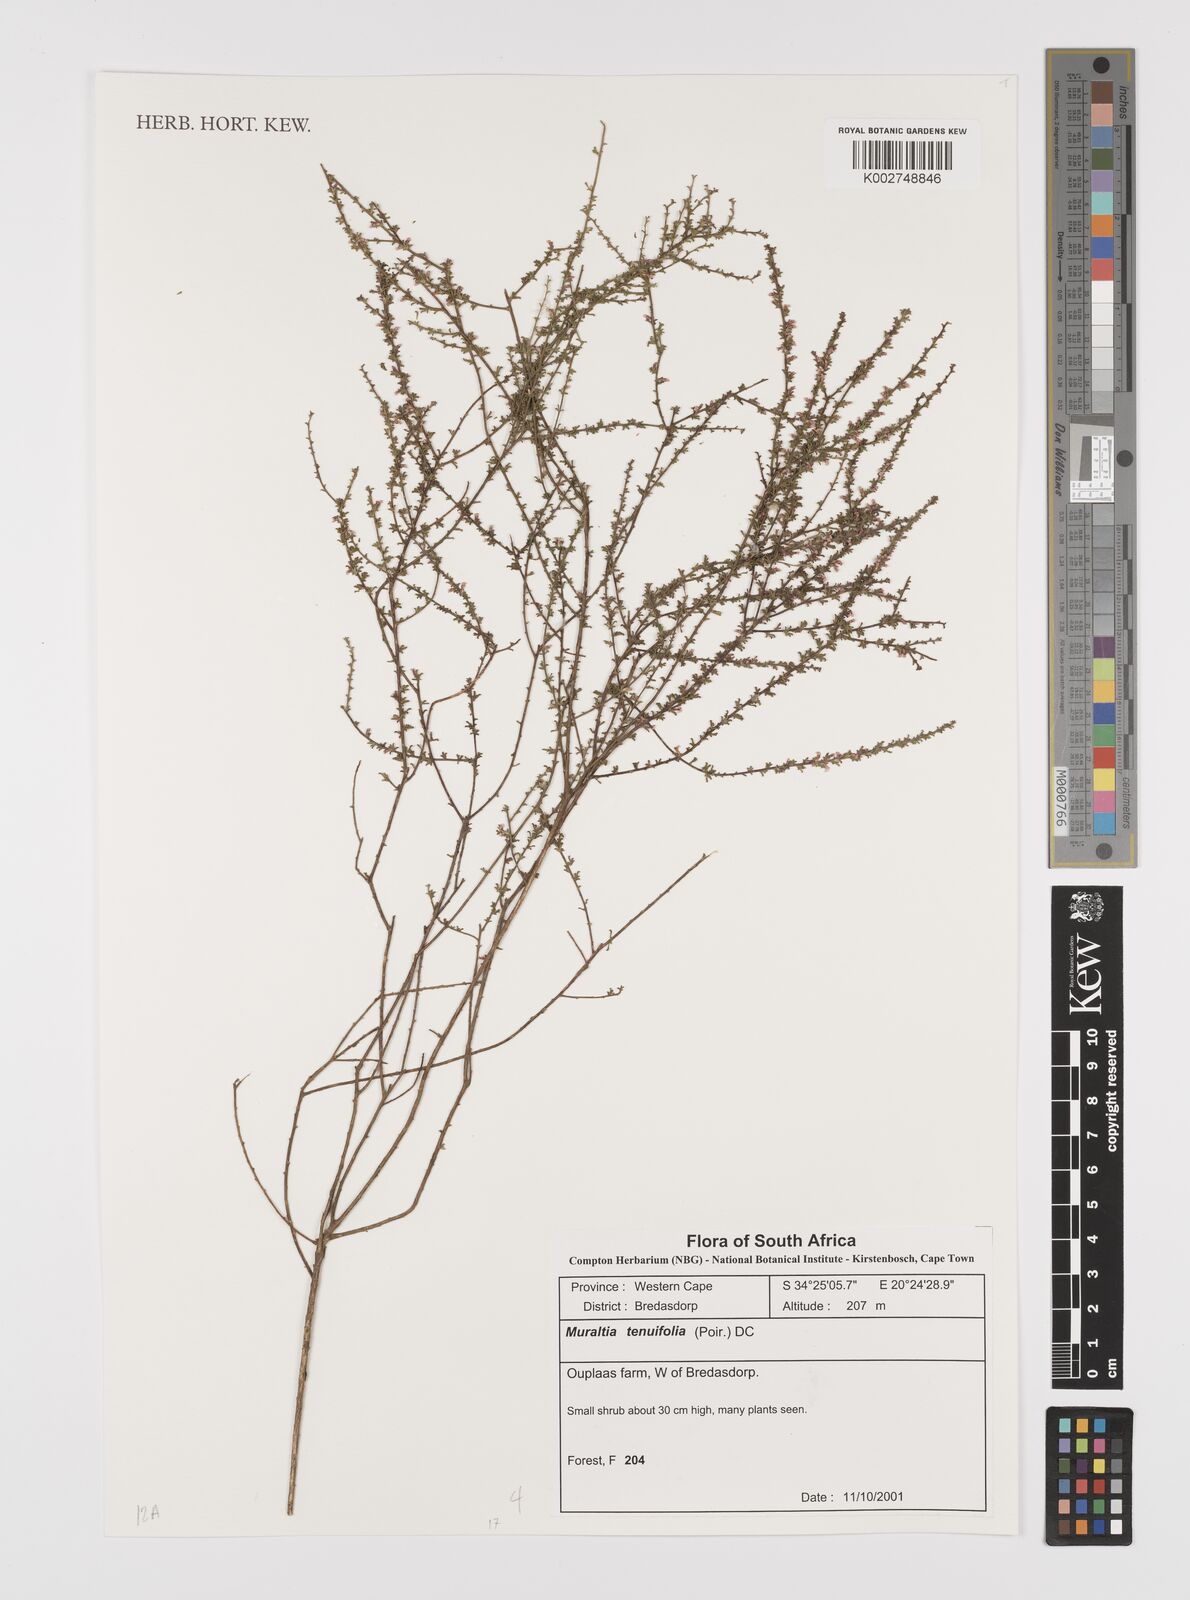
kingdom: Plantae
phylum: Tracheophyta
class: Magnoliopsida
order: Fabales
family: Polygalaceae
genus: Muraltia
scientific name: Muraltia lancifolia
